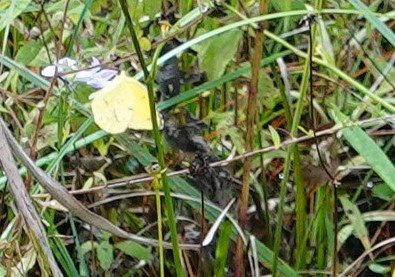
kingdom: Animalia
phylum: Arthropoda
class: Insecta
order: Lepidoptera
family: Pieridae
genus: Abaeis
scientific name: Abaeis nicippe
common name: Sleepy Orange
